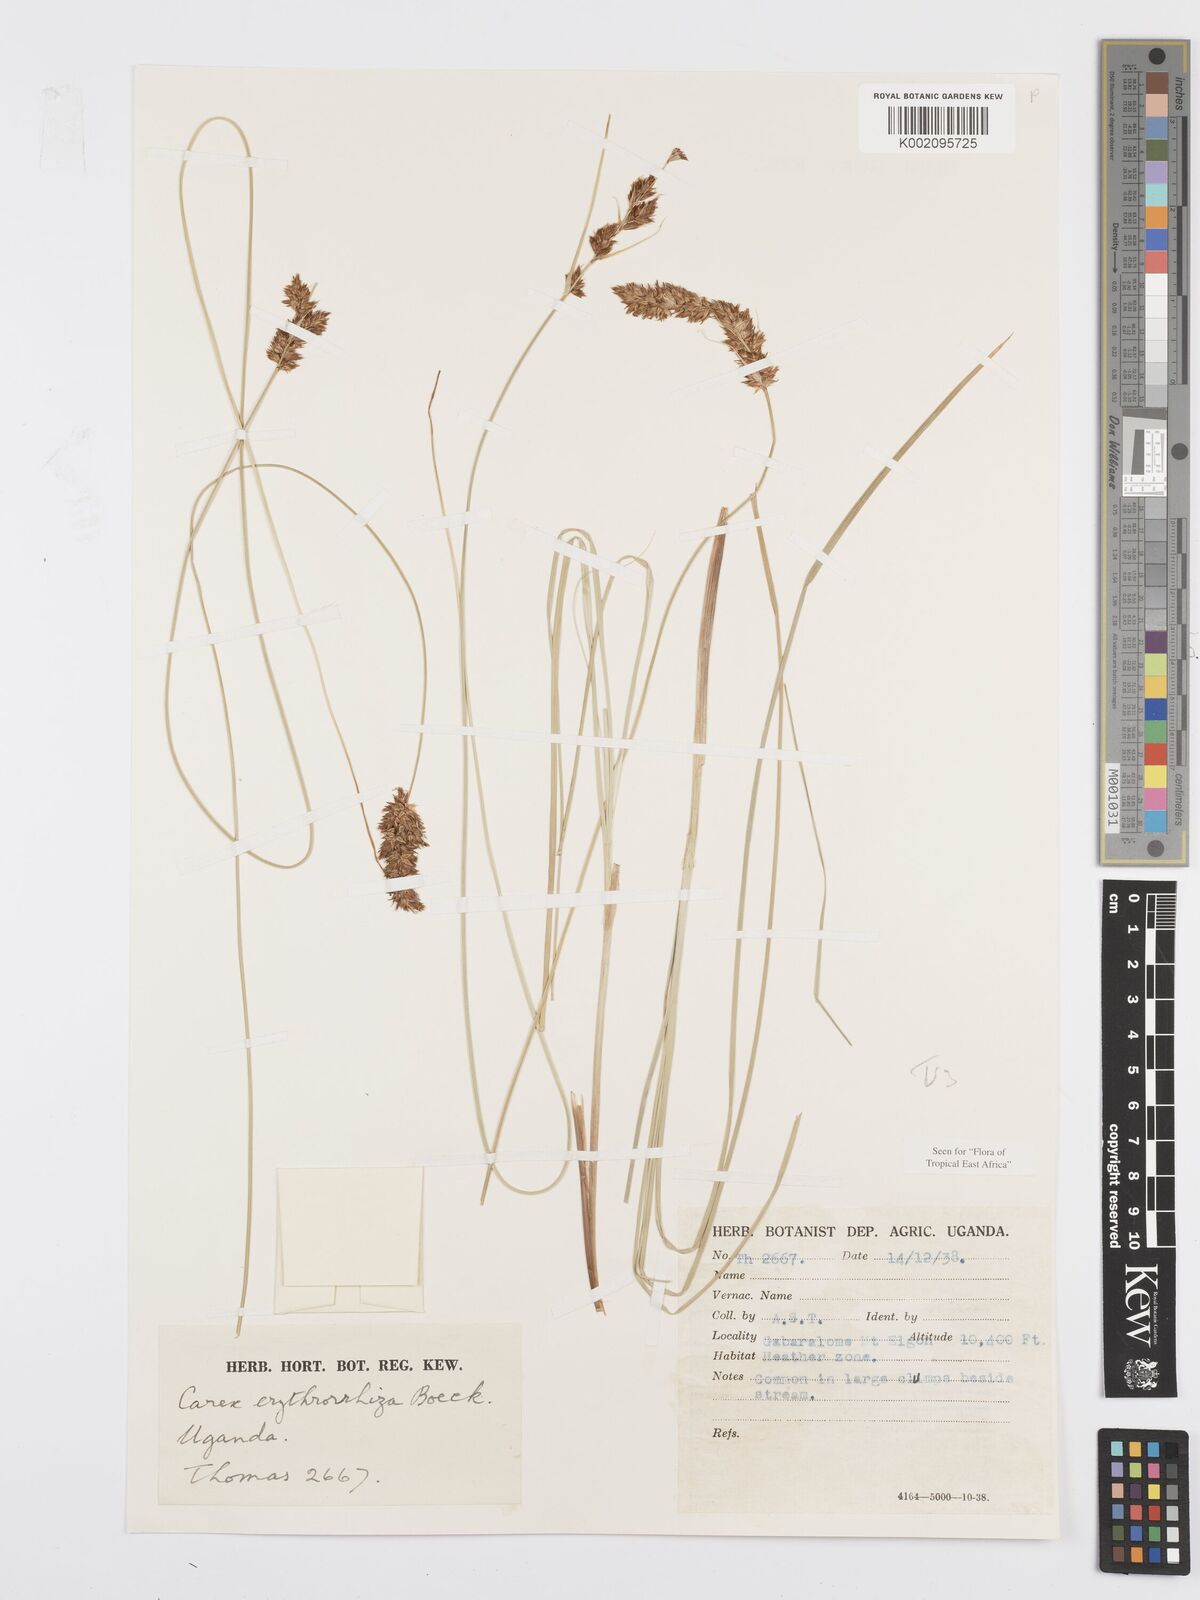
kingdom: Plantae
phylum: Tracheophyta
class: Liliopsida
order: Poales
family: Cyperaceae
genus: Carex
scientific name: Carex erythrorrhiza
